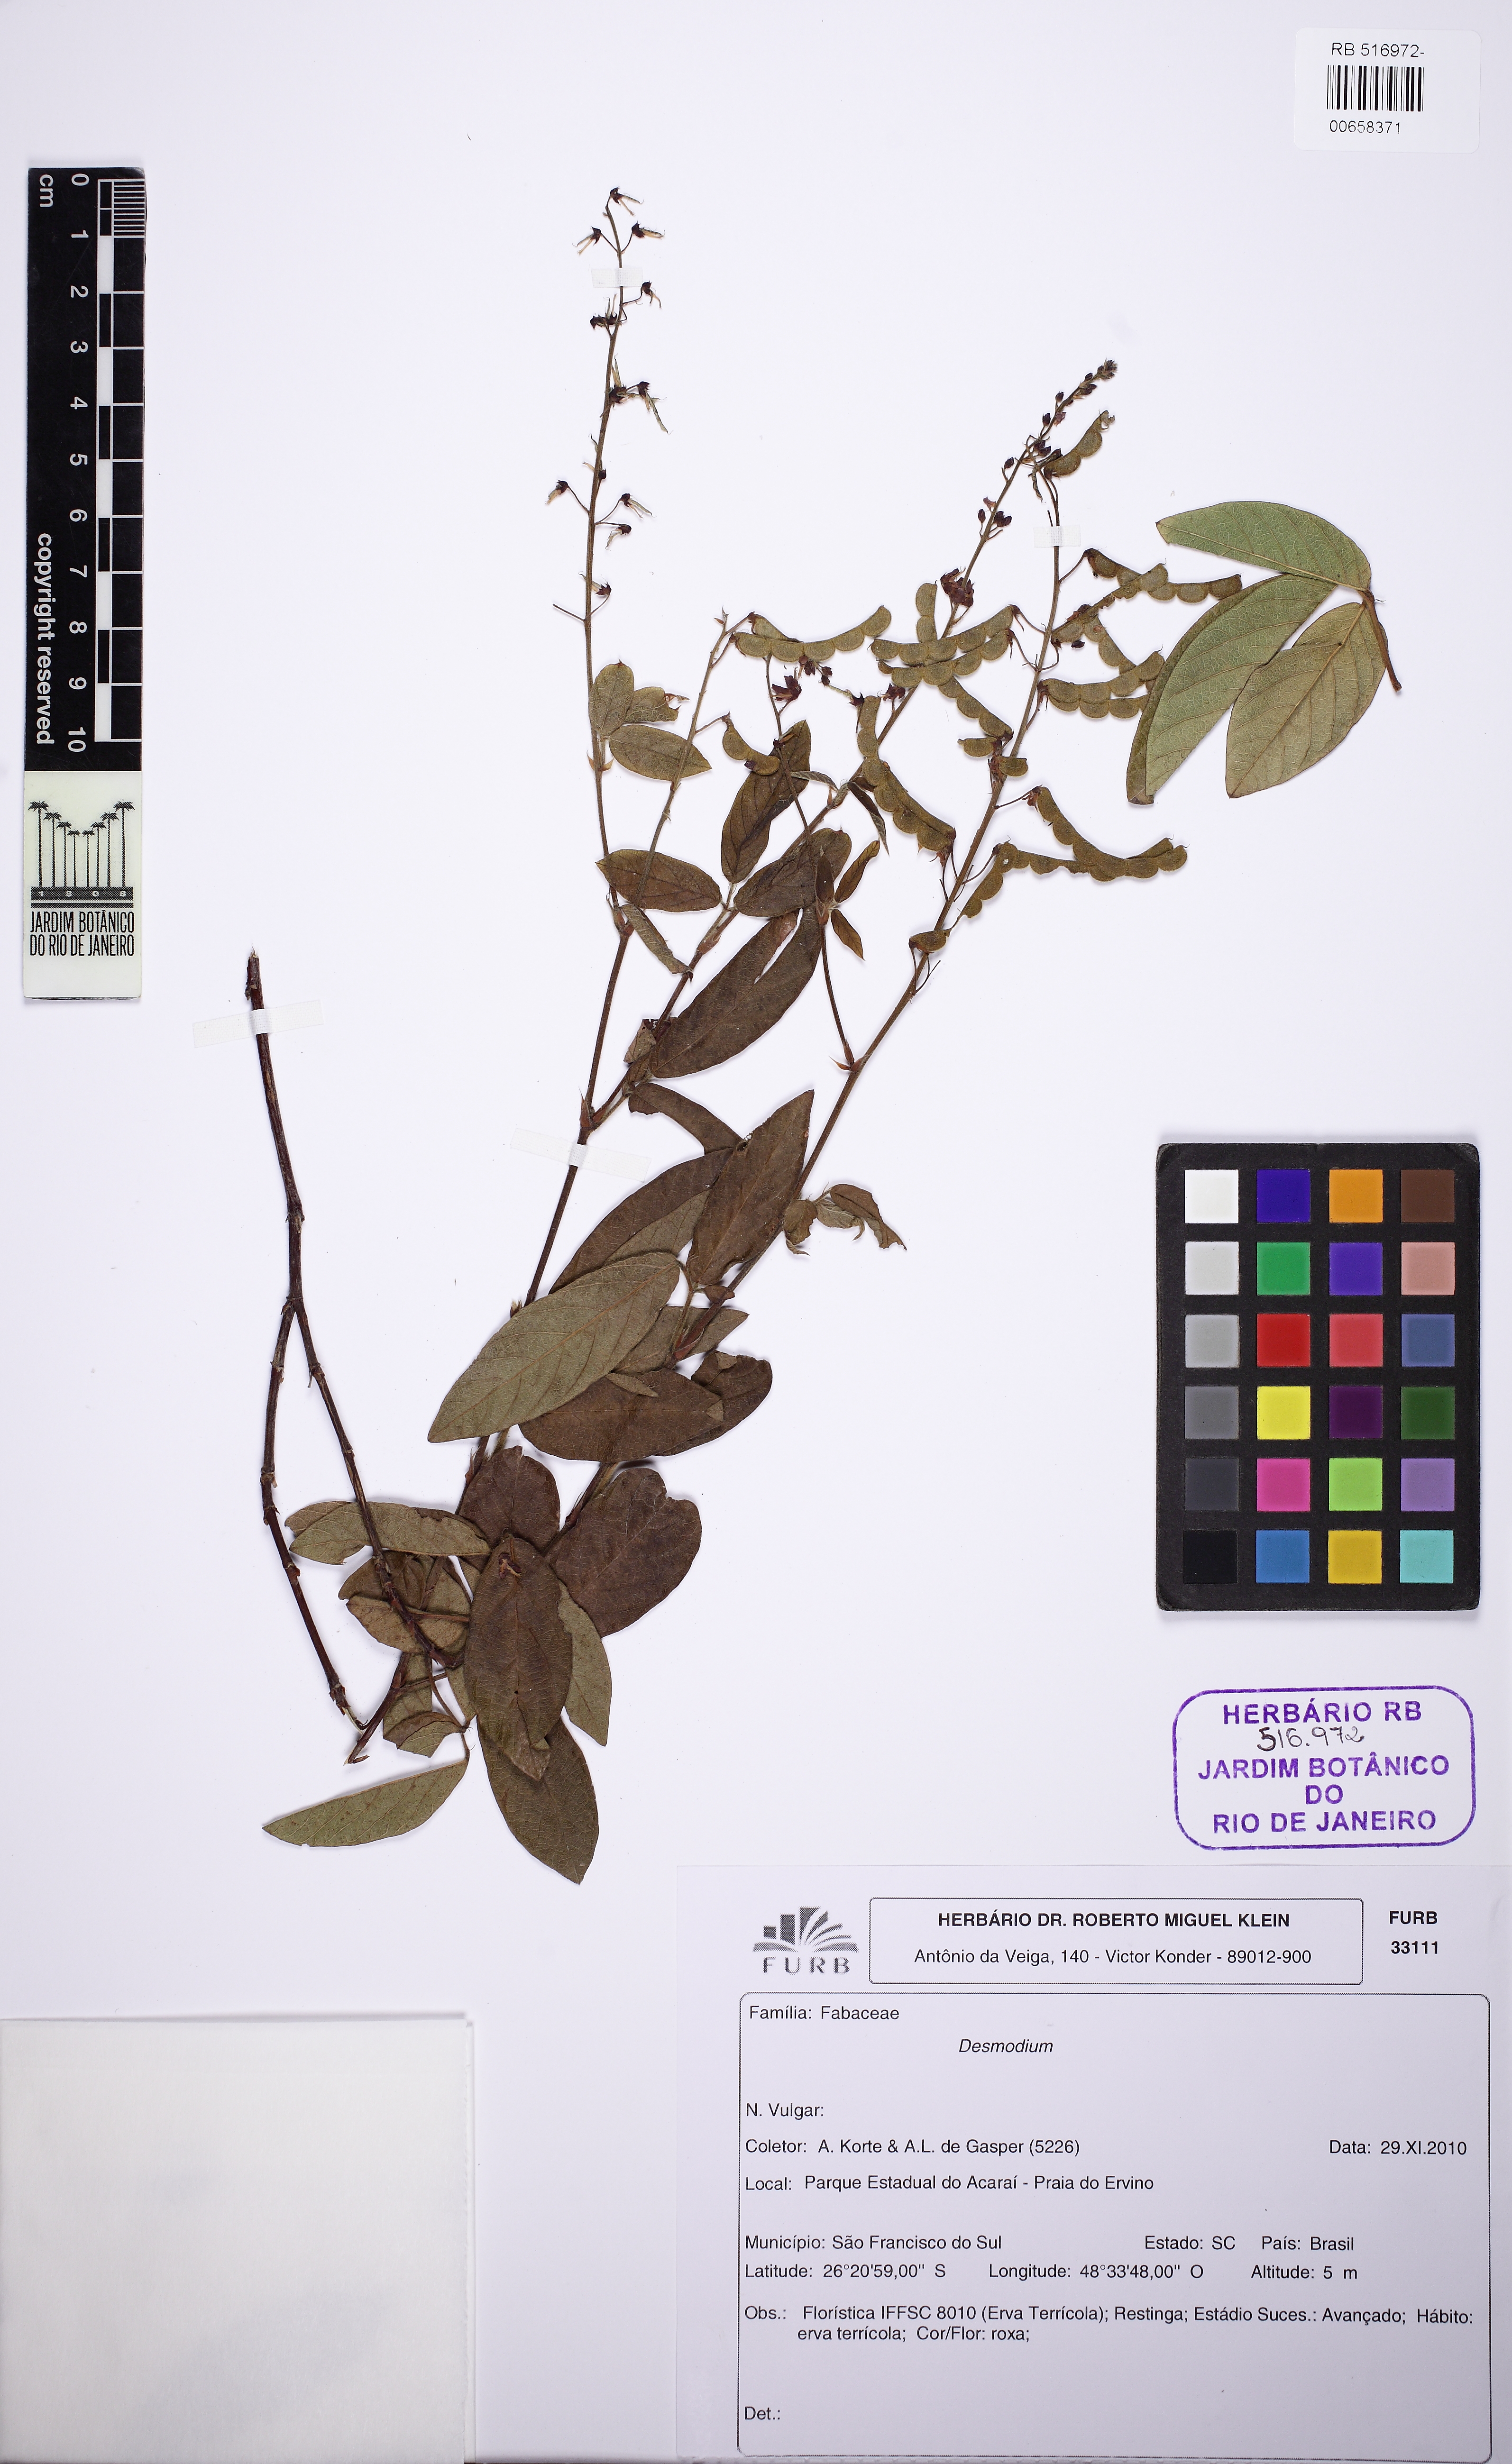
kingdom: Plantae
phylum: Tracheophyta
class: Magnoliopsida
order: Fabales
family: Fabaceae
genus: Desmodium
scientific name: Desmodium incanum
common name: Tickclover
